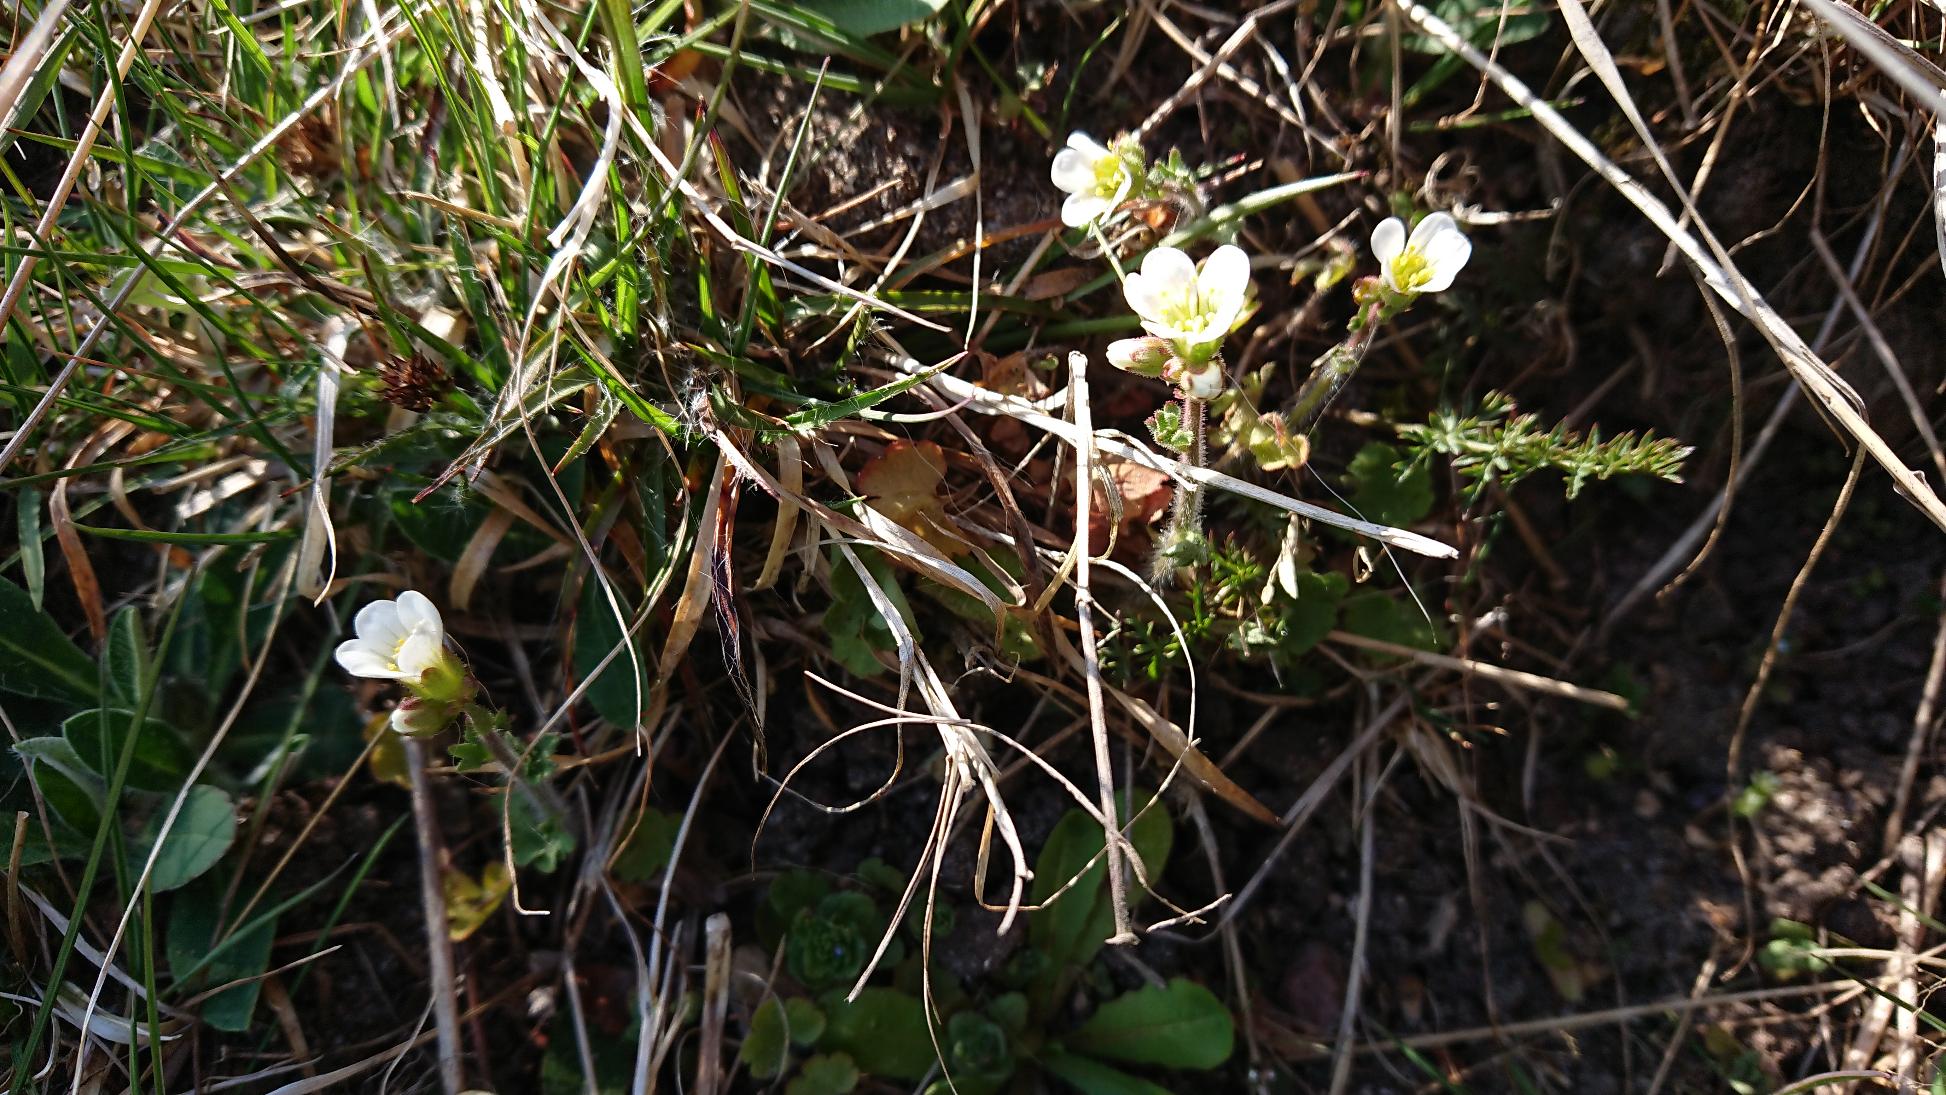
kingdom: Plantae
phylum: Tracheophyta
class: Magnoliopsida
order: Saxifragales
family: Saxifragaceae
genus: Saxifraga
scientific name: Saxifraga granulata
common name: Kornet stenbræk
